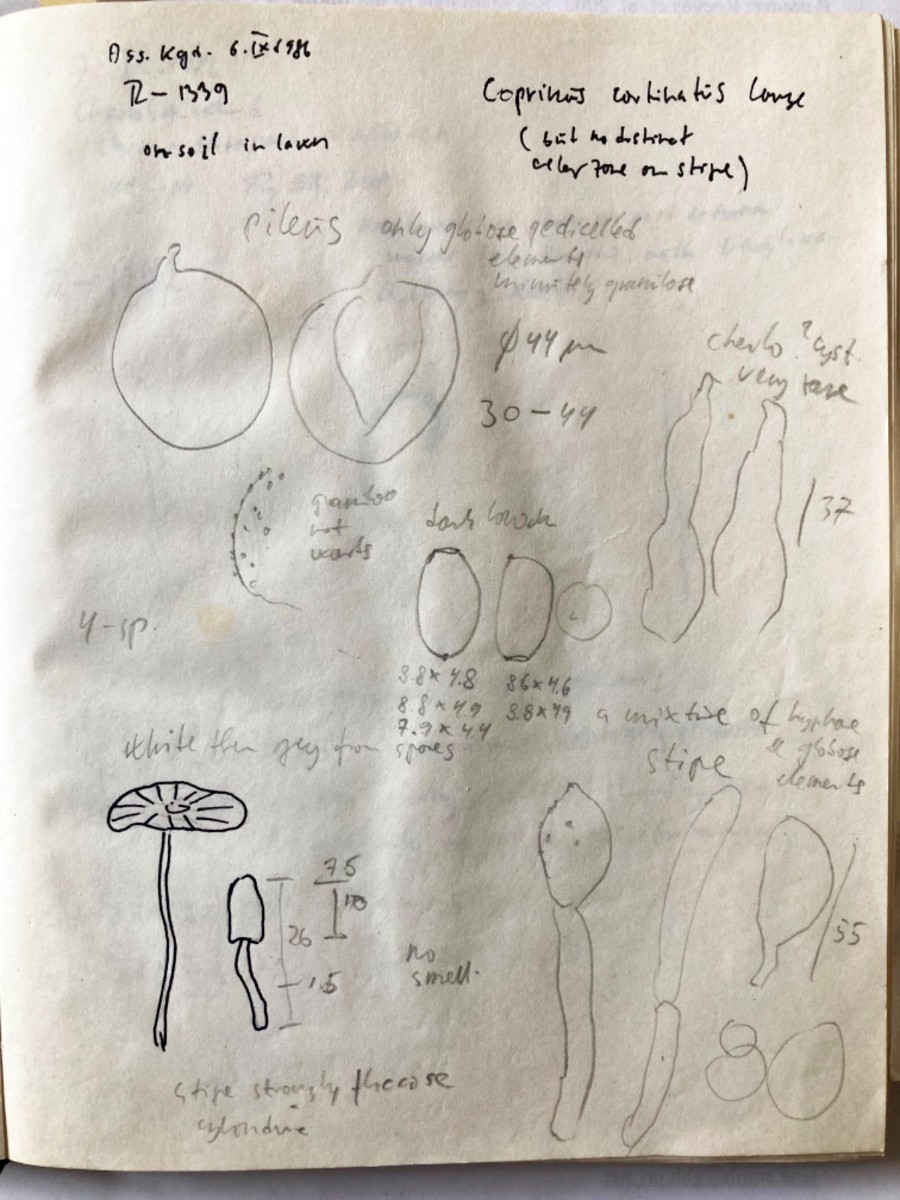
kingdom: Fungi
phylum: Basidiomycota
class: Agaricomycetes
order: Agaricales
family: Psathyrellaceae
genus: Coprinopsis
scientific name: Coprinopsis cortinata
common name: slør-blækhat
